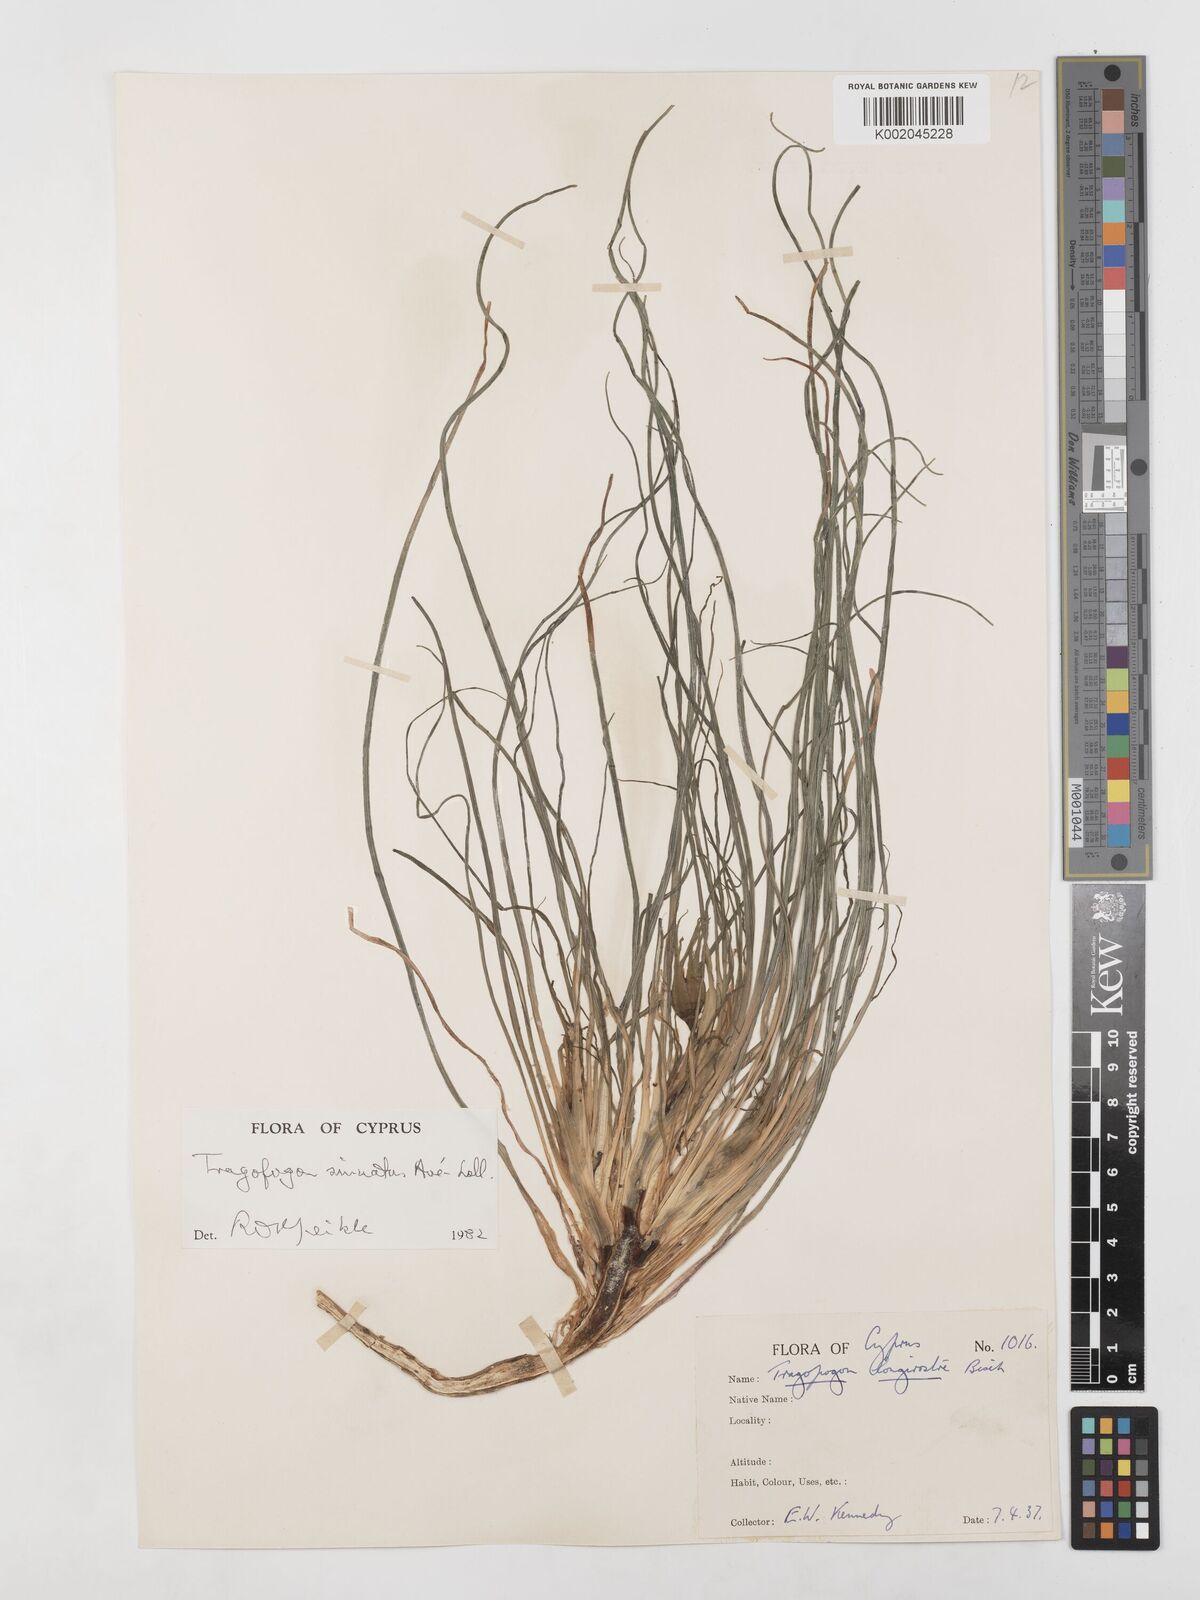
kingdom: Plantae
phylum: Tracheophyta
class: Magnoliopsida
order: Asterales
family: Asteraceae
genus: Tragopogon
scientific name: Tragopogon porrifolius
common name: Salsify
